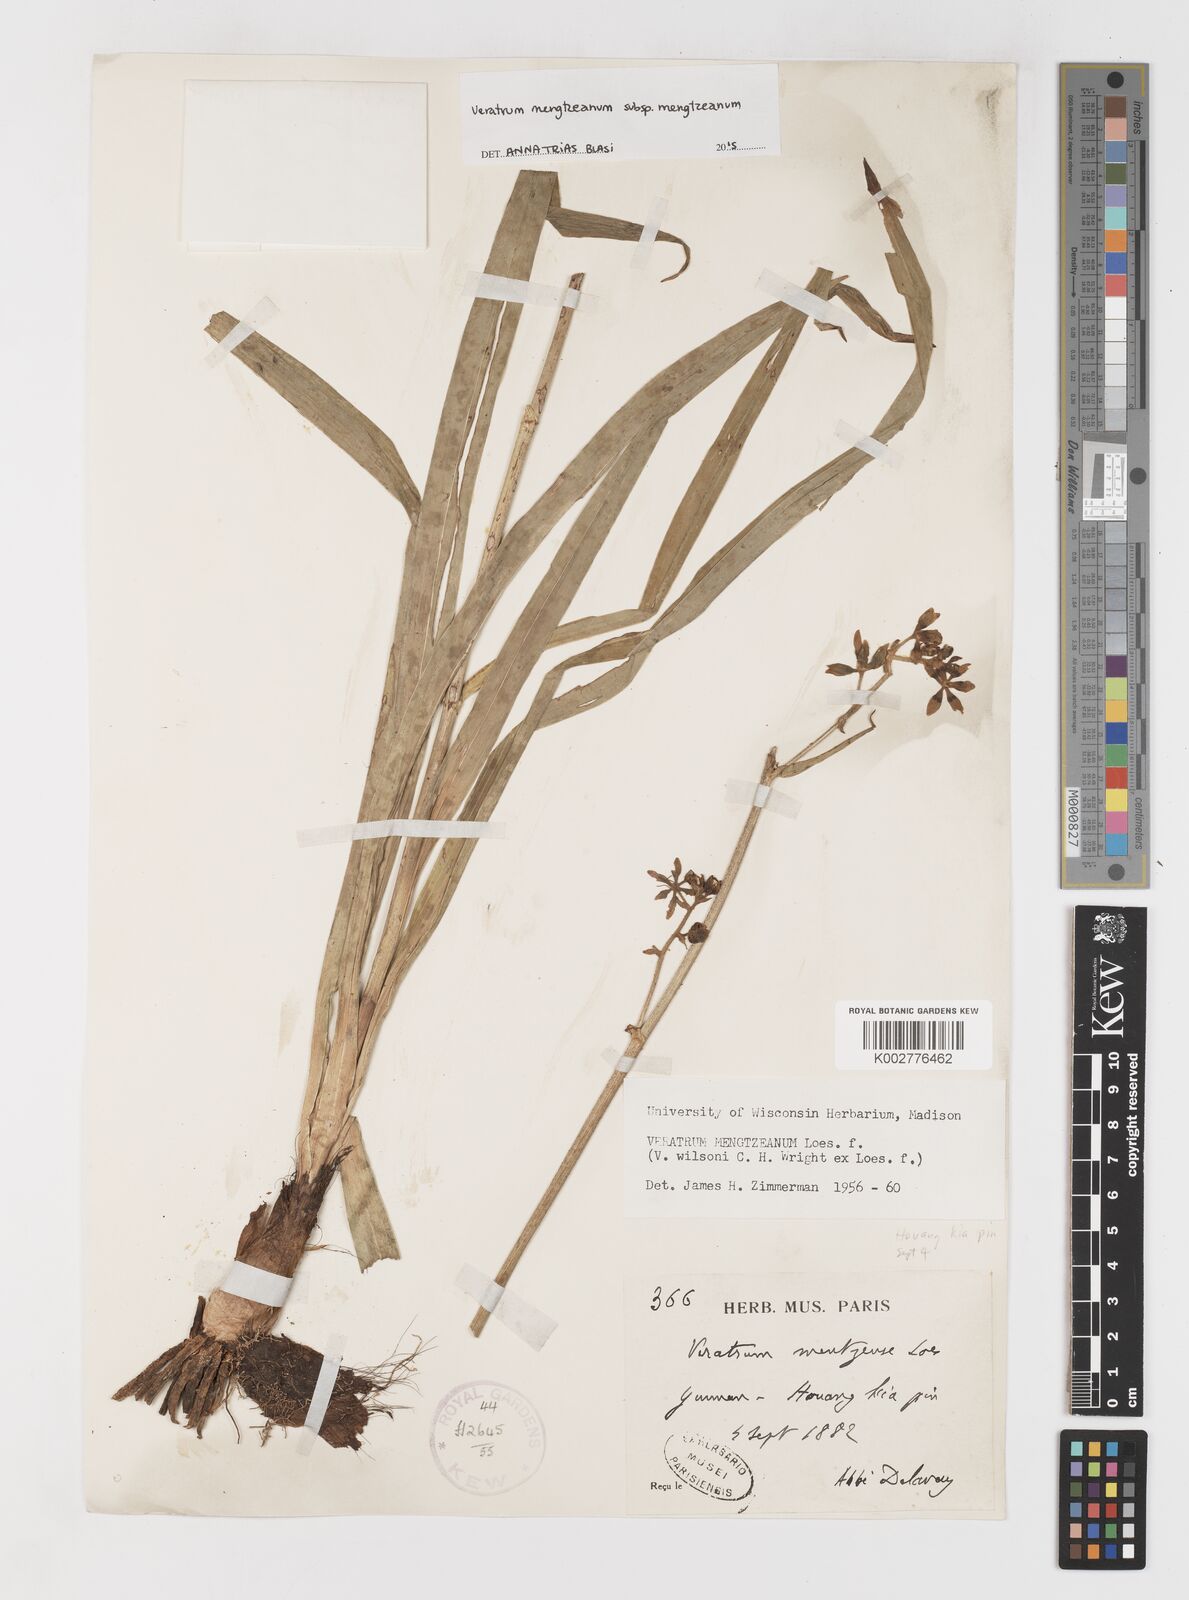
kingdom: Plantae
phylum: Tracheophyta
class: Liliopsida
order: Liliales
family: Melanthiaceae
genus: Veratrum
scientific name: Veratrum mengtzeanum
